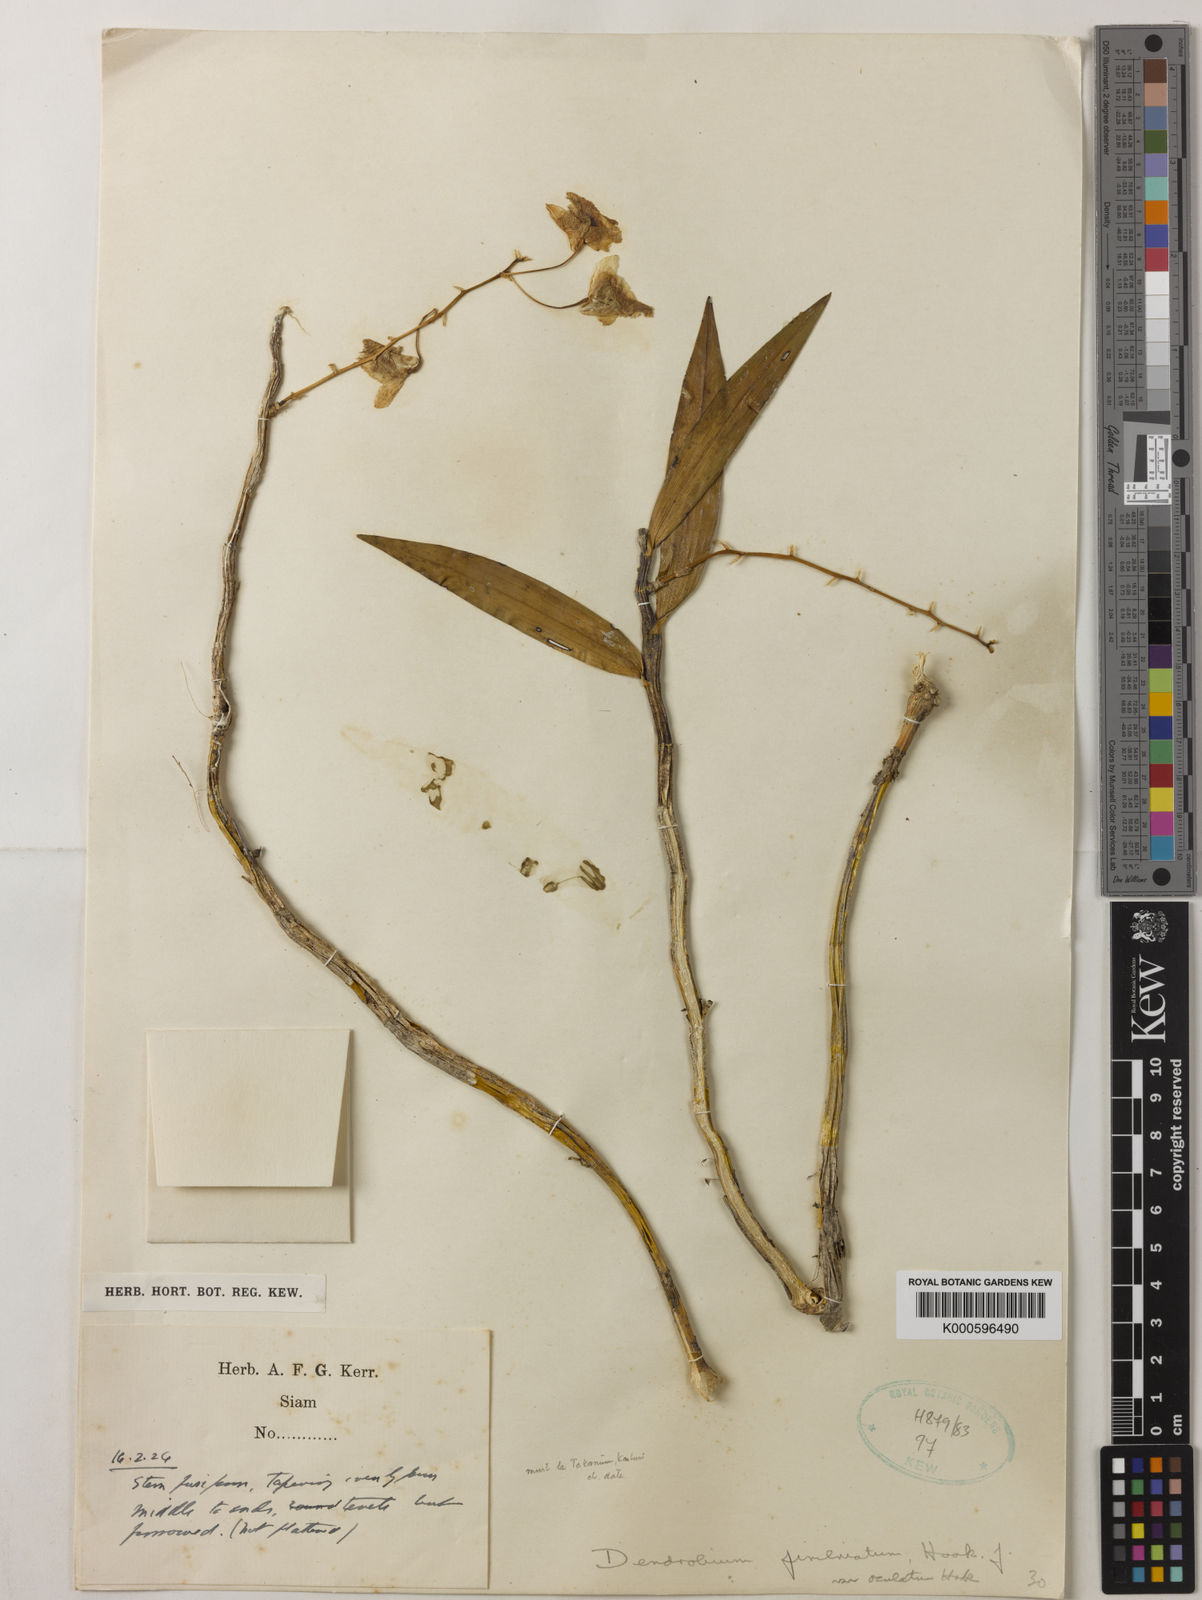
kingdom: Plantae
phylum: Tracheophyta
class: Liliopsida
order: Asparagales
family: Orchidaceae
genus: Dendrobium
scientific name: Dendrobium fimbriatum
